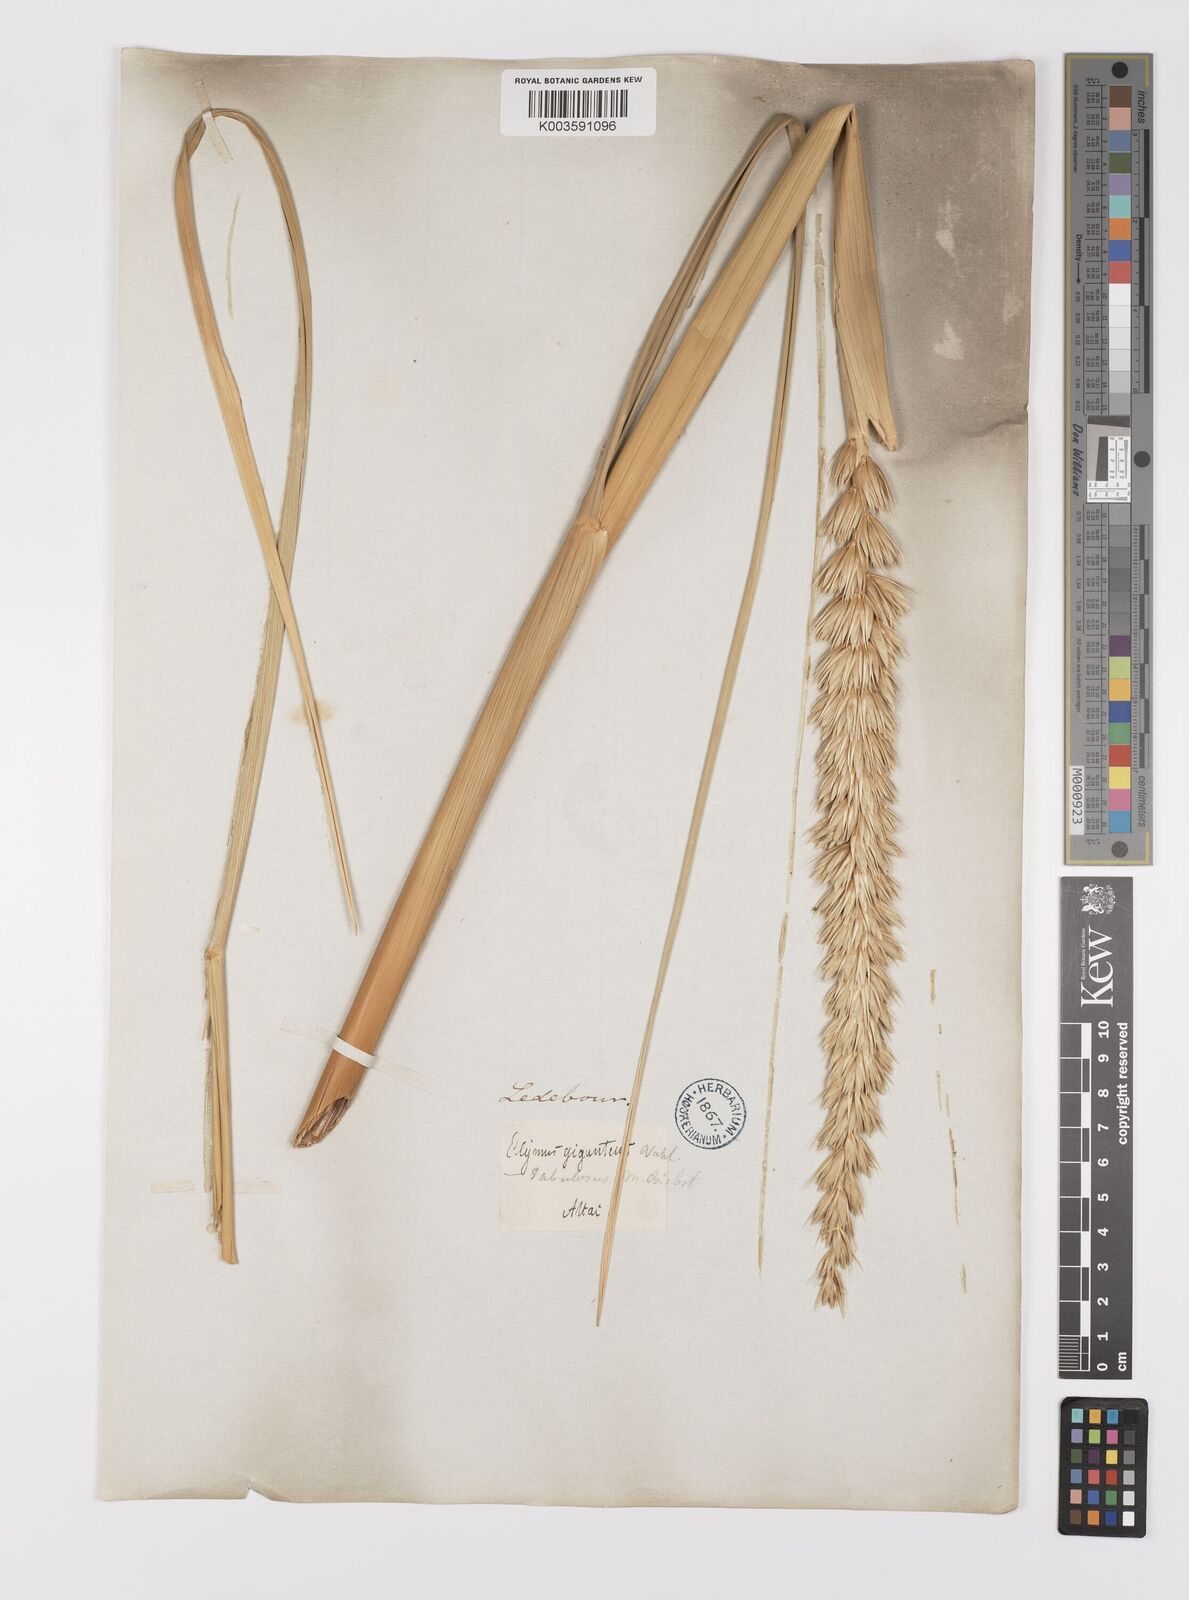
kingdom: Plantae
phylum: Tracheophyta
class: Liliopsida
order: Poales
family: Poaceae
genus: Leymus
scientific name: Leymus racemosus
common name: Mammoth wildrye
